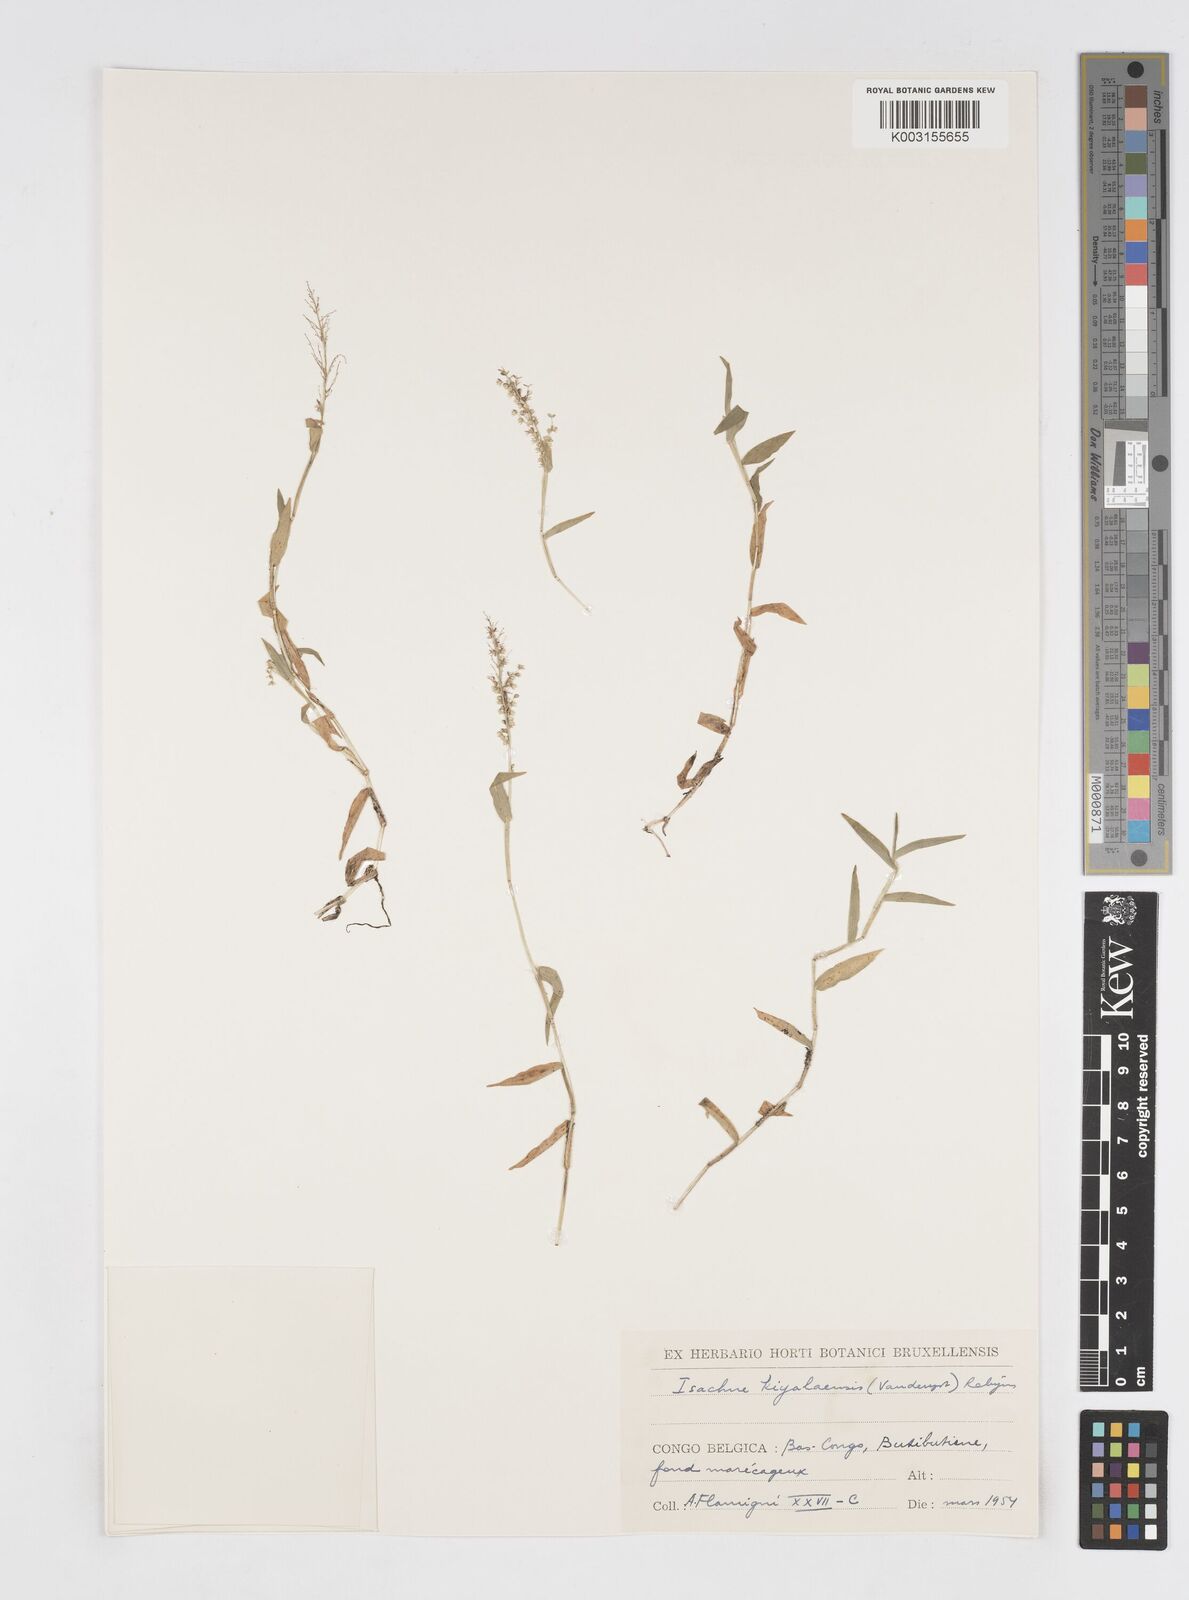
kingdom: Plantae
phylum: Tracheophyta
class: Liliopsida
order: Poales
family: Poaceae
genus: Isachne
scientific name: Isachne kiyalaensis
